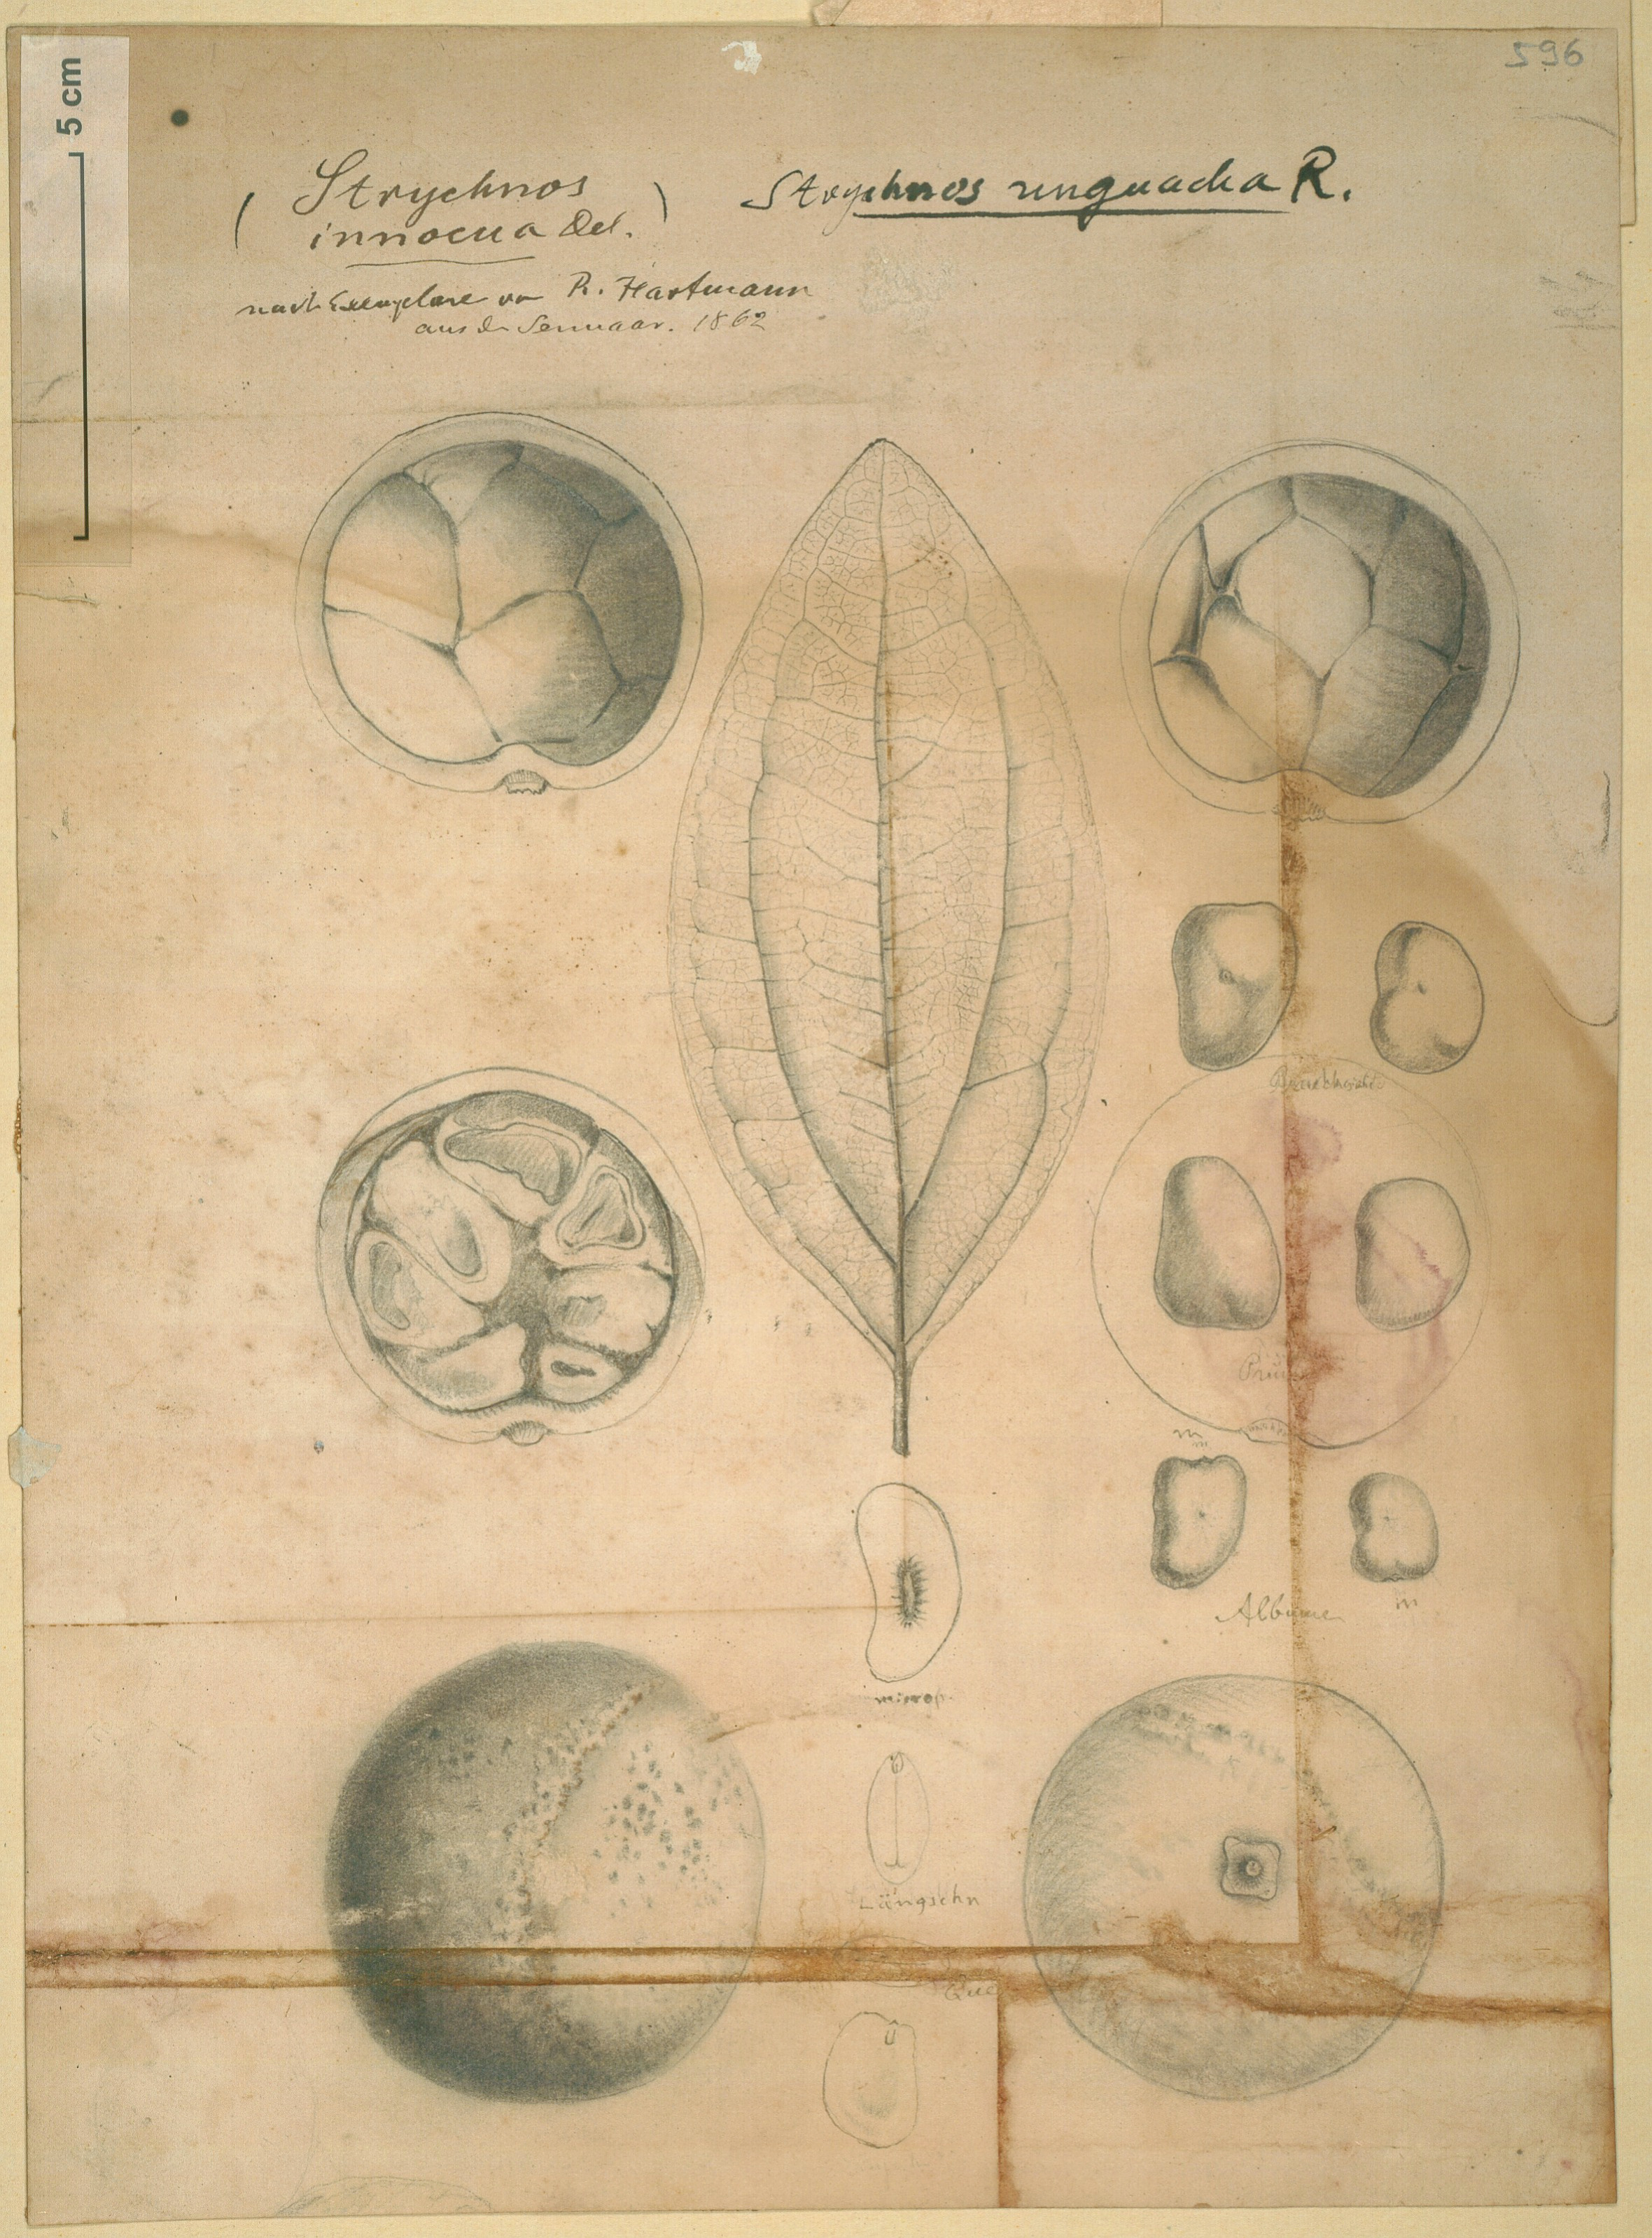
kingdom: Plantae
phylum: Tracheophyta
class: Magnoliopsida
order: Gentianales
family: Loganiaceae
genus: Strychnos
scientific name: Strychnos innocua
